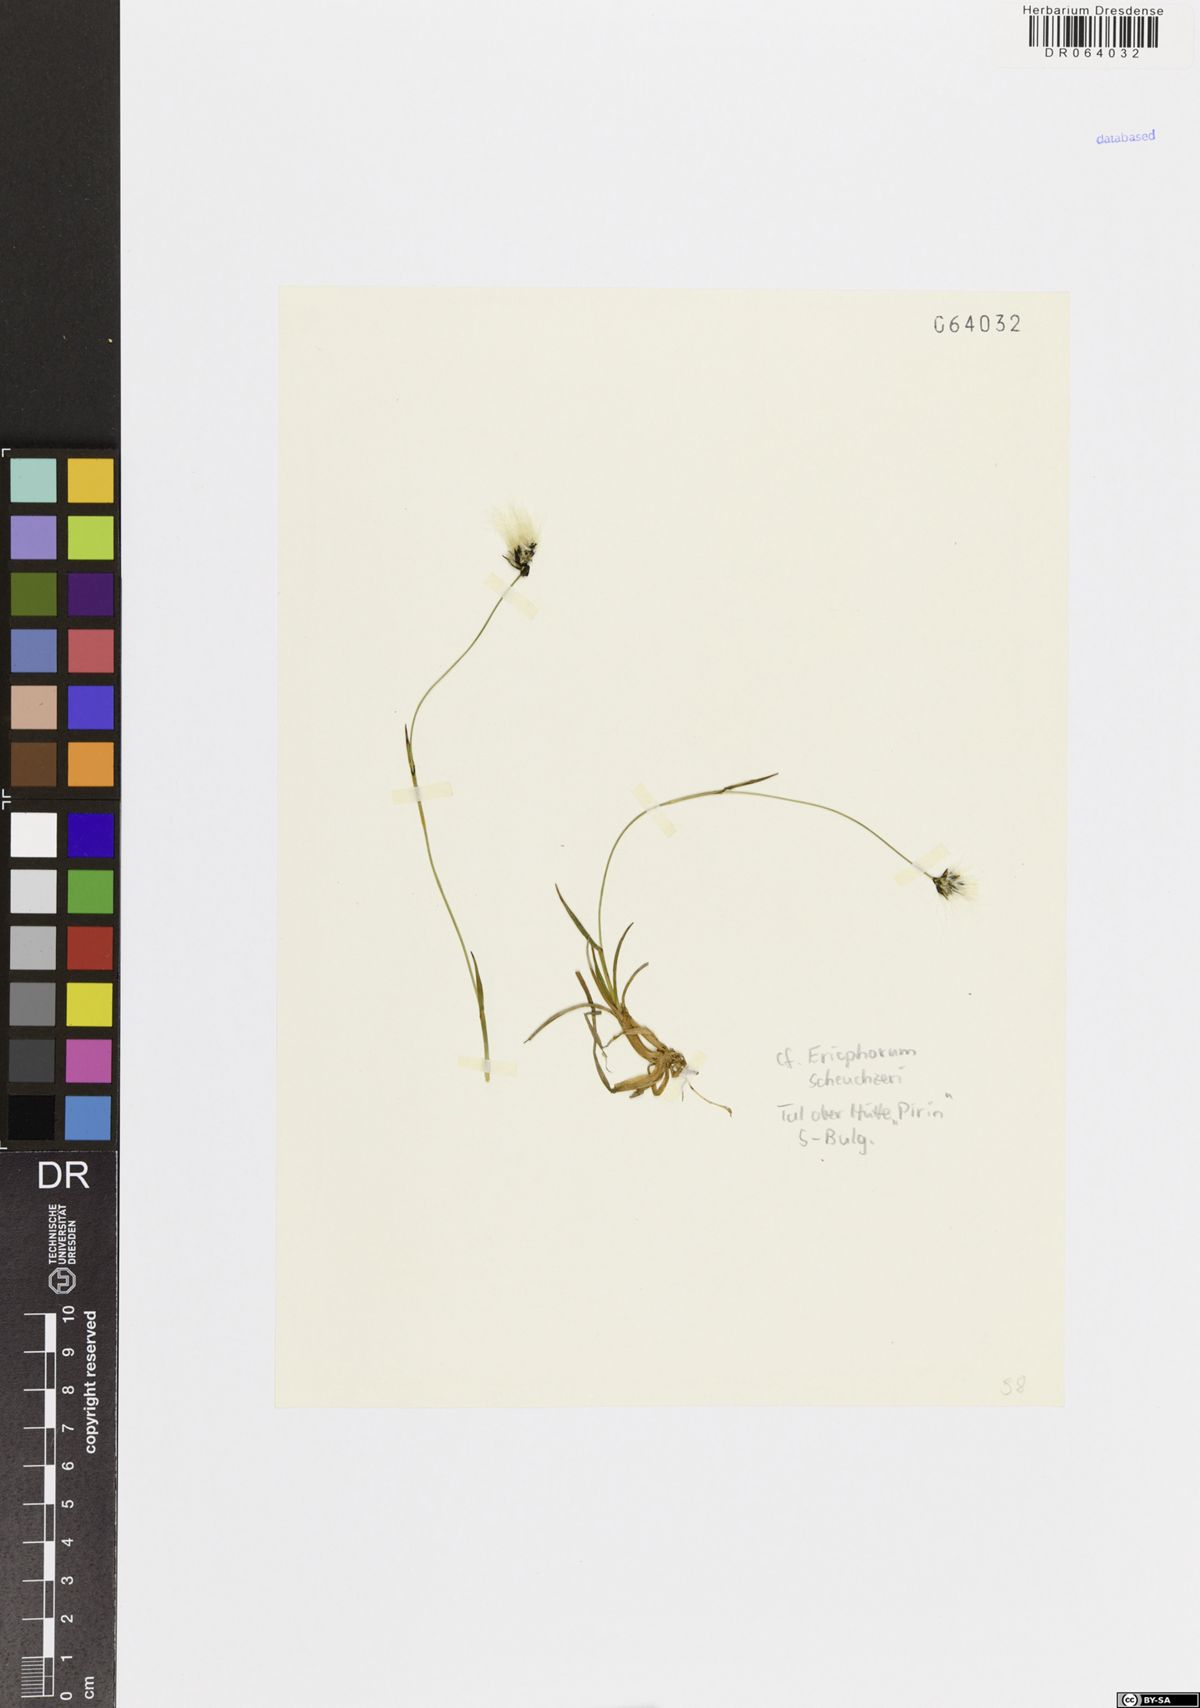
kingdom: Plantae
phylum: Tracheophyta
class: Liliopsida
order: Poales
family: Cyperaceae
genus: Eriophorum
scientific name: Eriophorum scheuchzeri
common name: Scheuchzer's cottongrass
